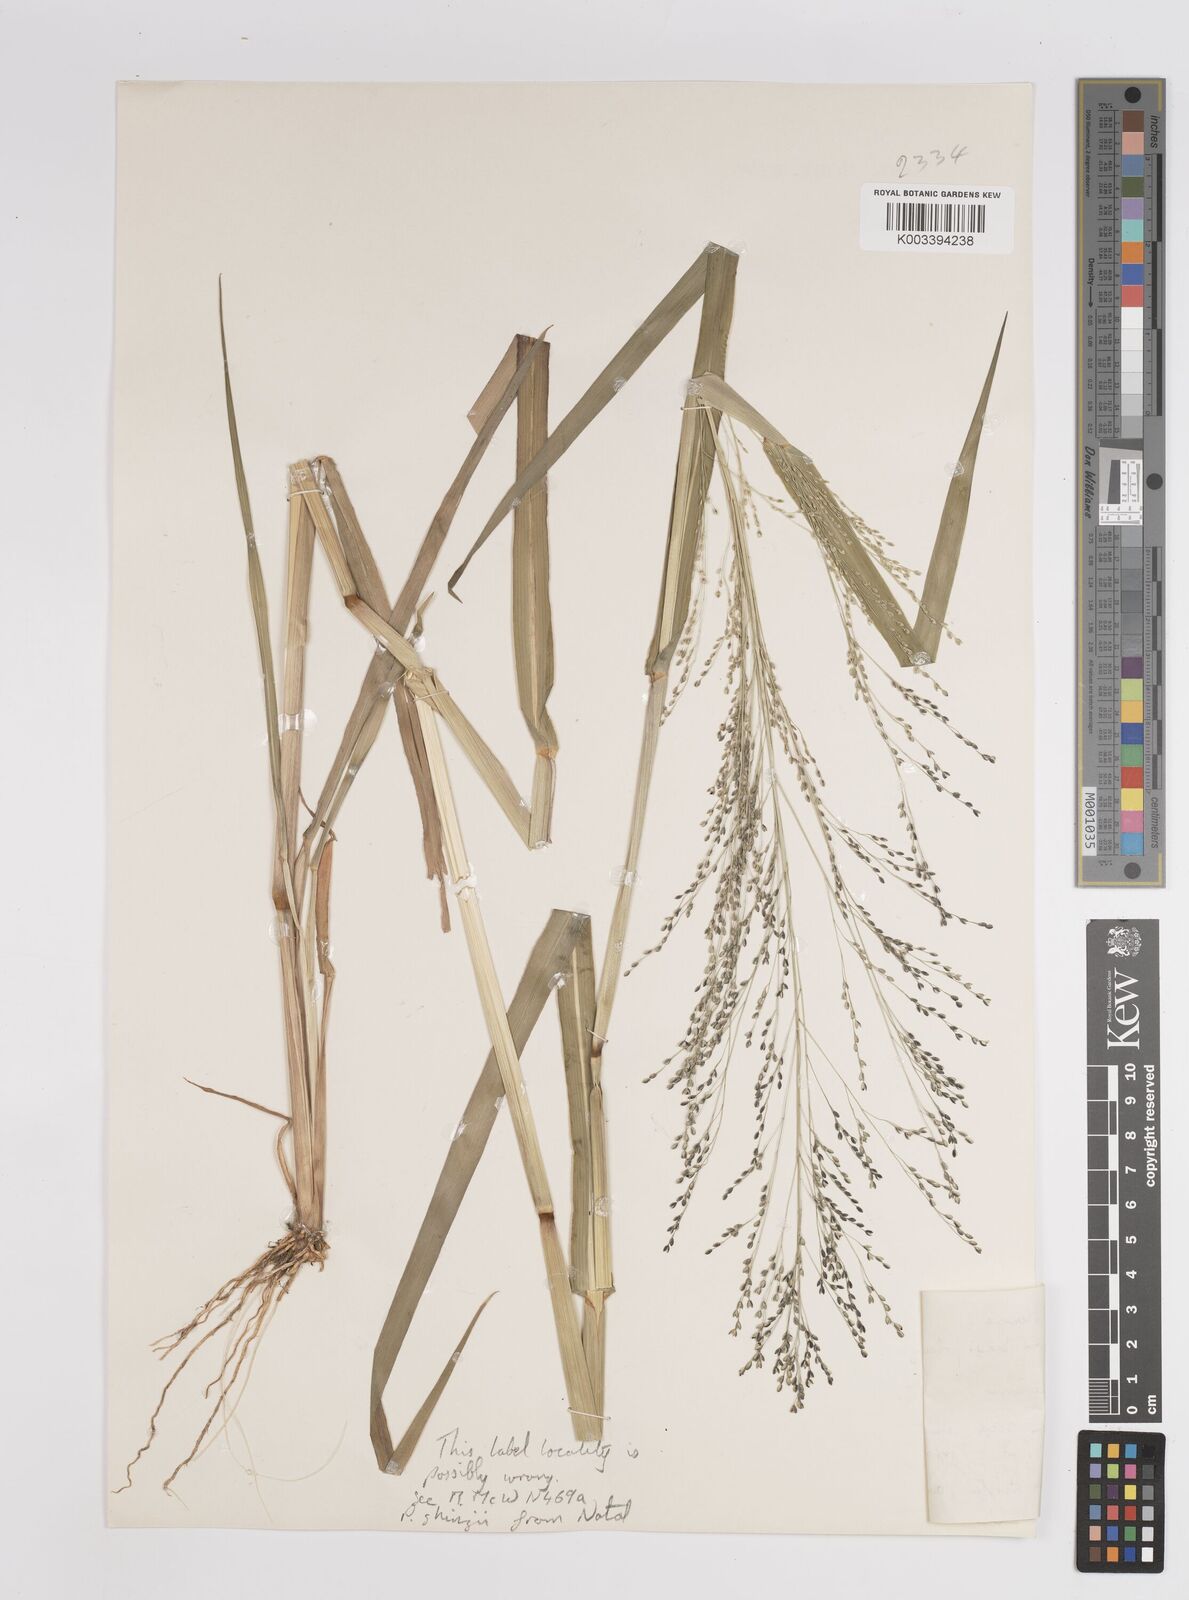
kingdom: Plantae
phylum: Tracheophyta
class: Liliopsida
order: Poales
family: Poaceae
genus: Panicum
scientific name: Panicum schinzii
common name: Sweet grass
